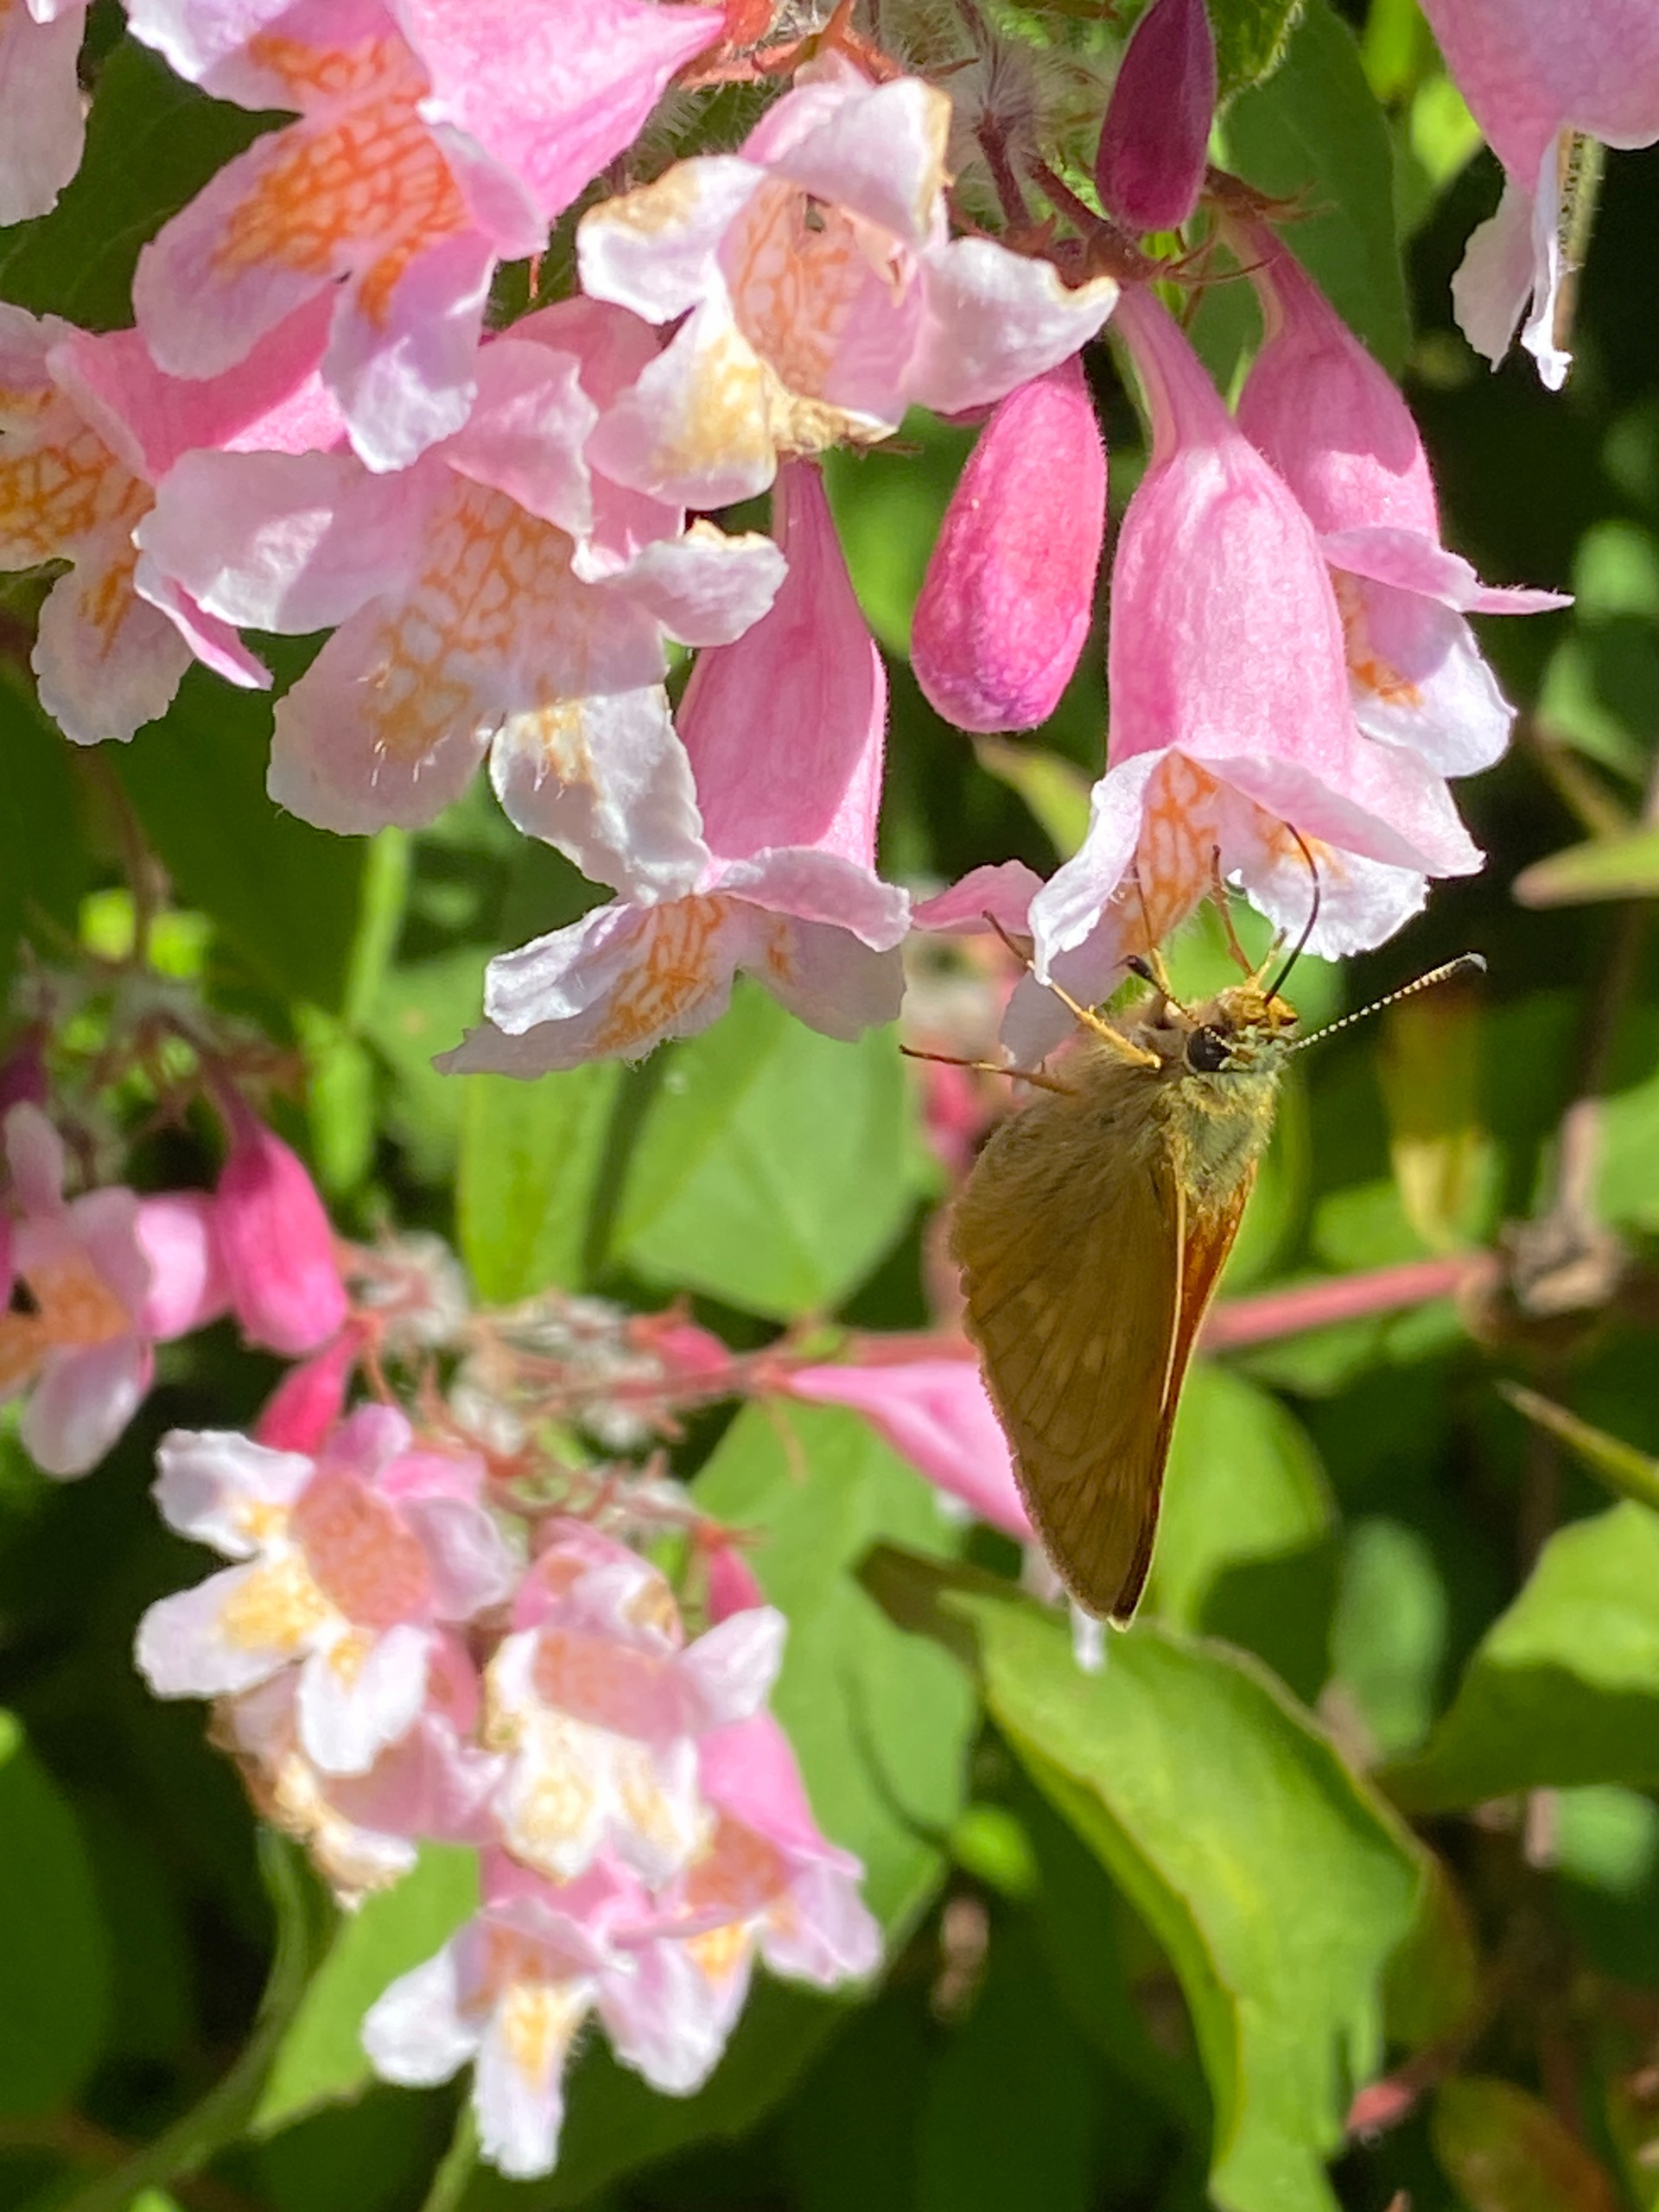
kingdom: Animalia
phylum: Arthropoda
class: Insecta
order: Lepidoptera
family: Hesperiidae
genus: Ochlodes
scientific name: Ochlodes venata
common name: Stor bredpande
